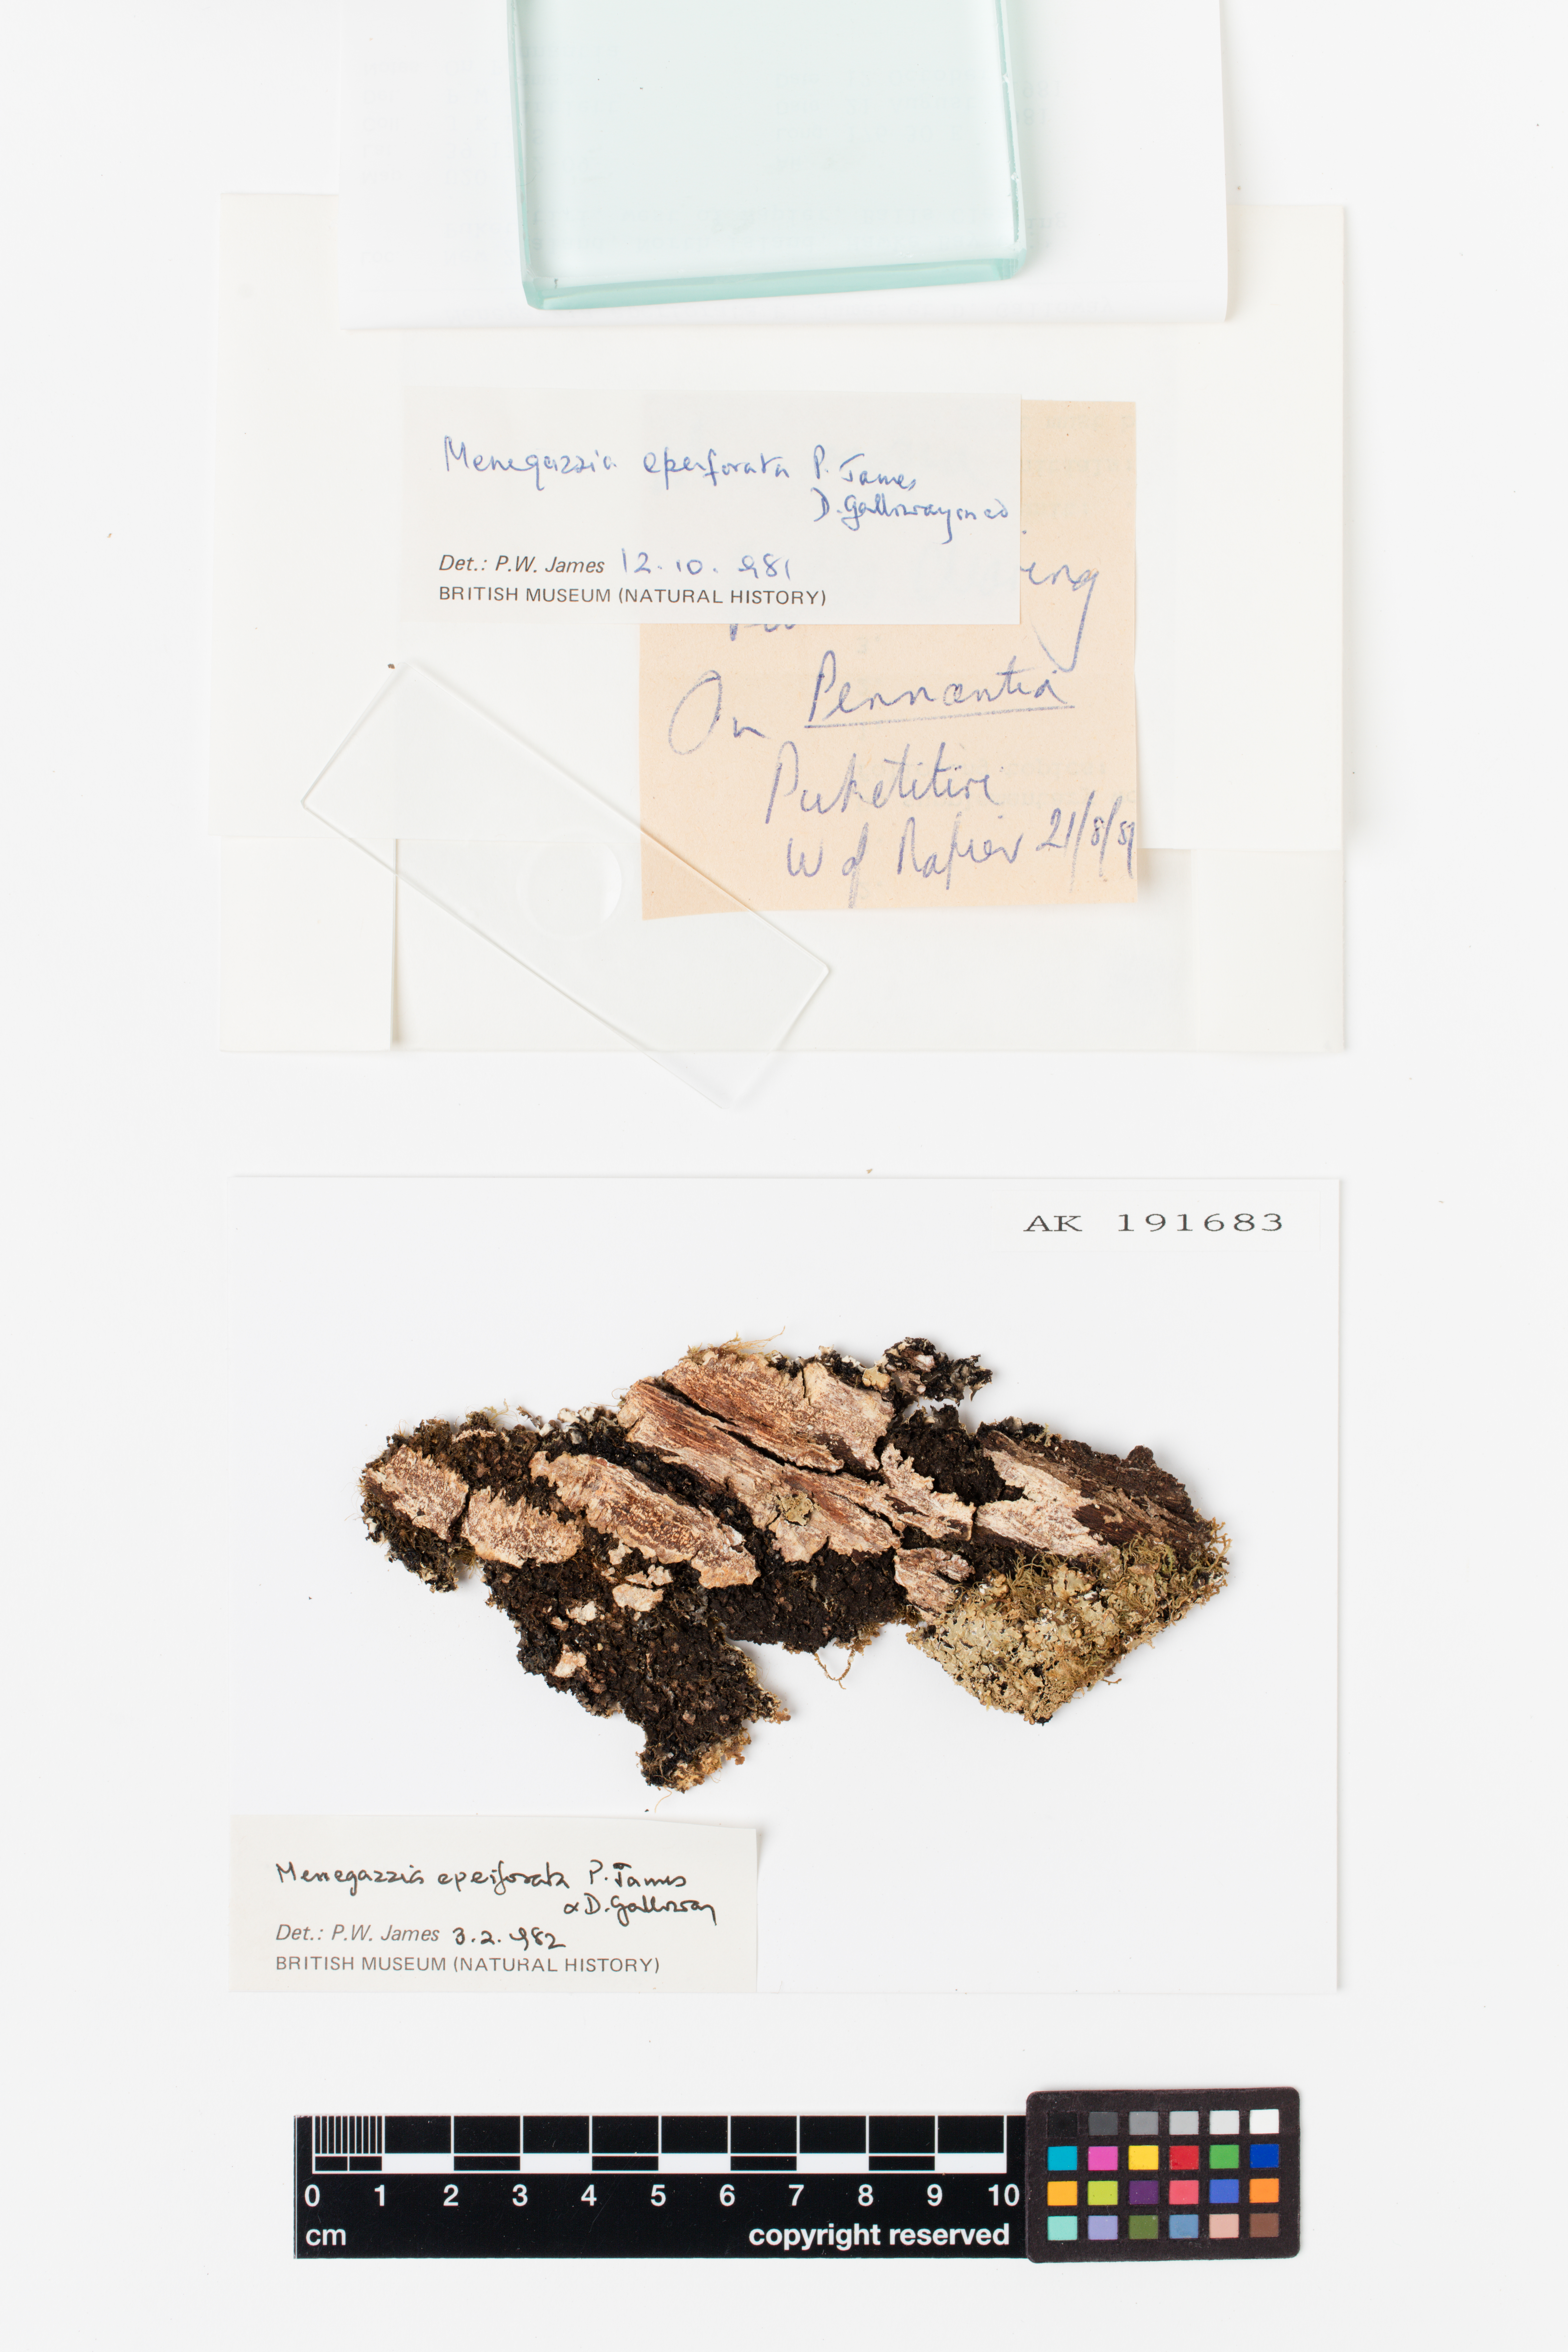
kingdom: Fungi
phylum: Ascomycota
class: Lecanoromycetes
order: Lecanorales
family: Parmeliaceae
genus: Menegazzia
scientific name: Menegazzia eperforata
